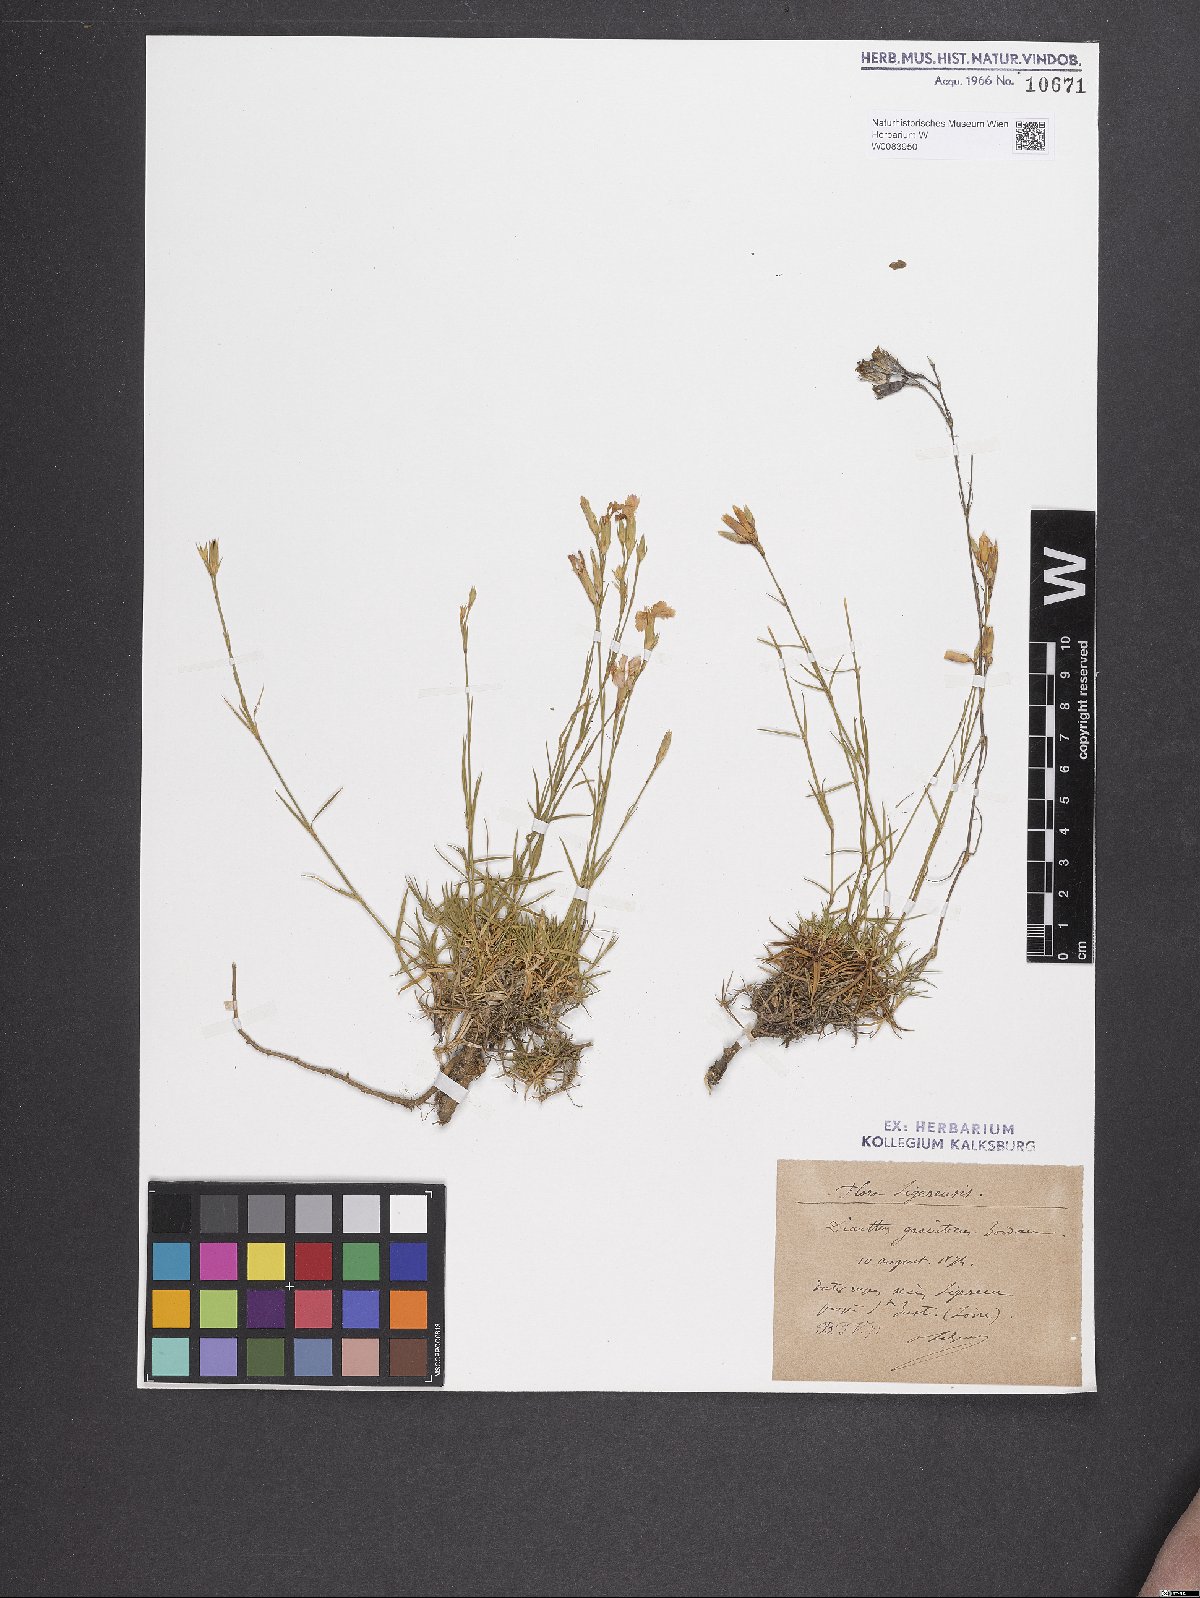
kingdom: Plantae
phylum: Tracheophyta
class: Magnoliopsida
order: Caryophyllales
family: Caryophyllaceae
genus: Dianthus
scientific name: Dianthus graniticus
